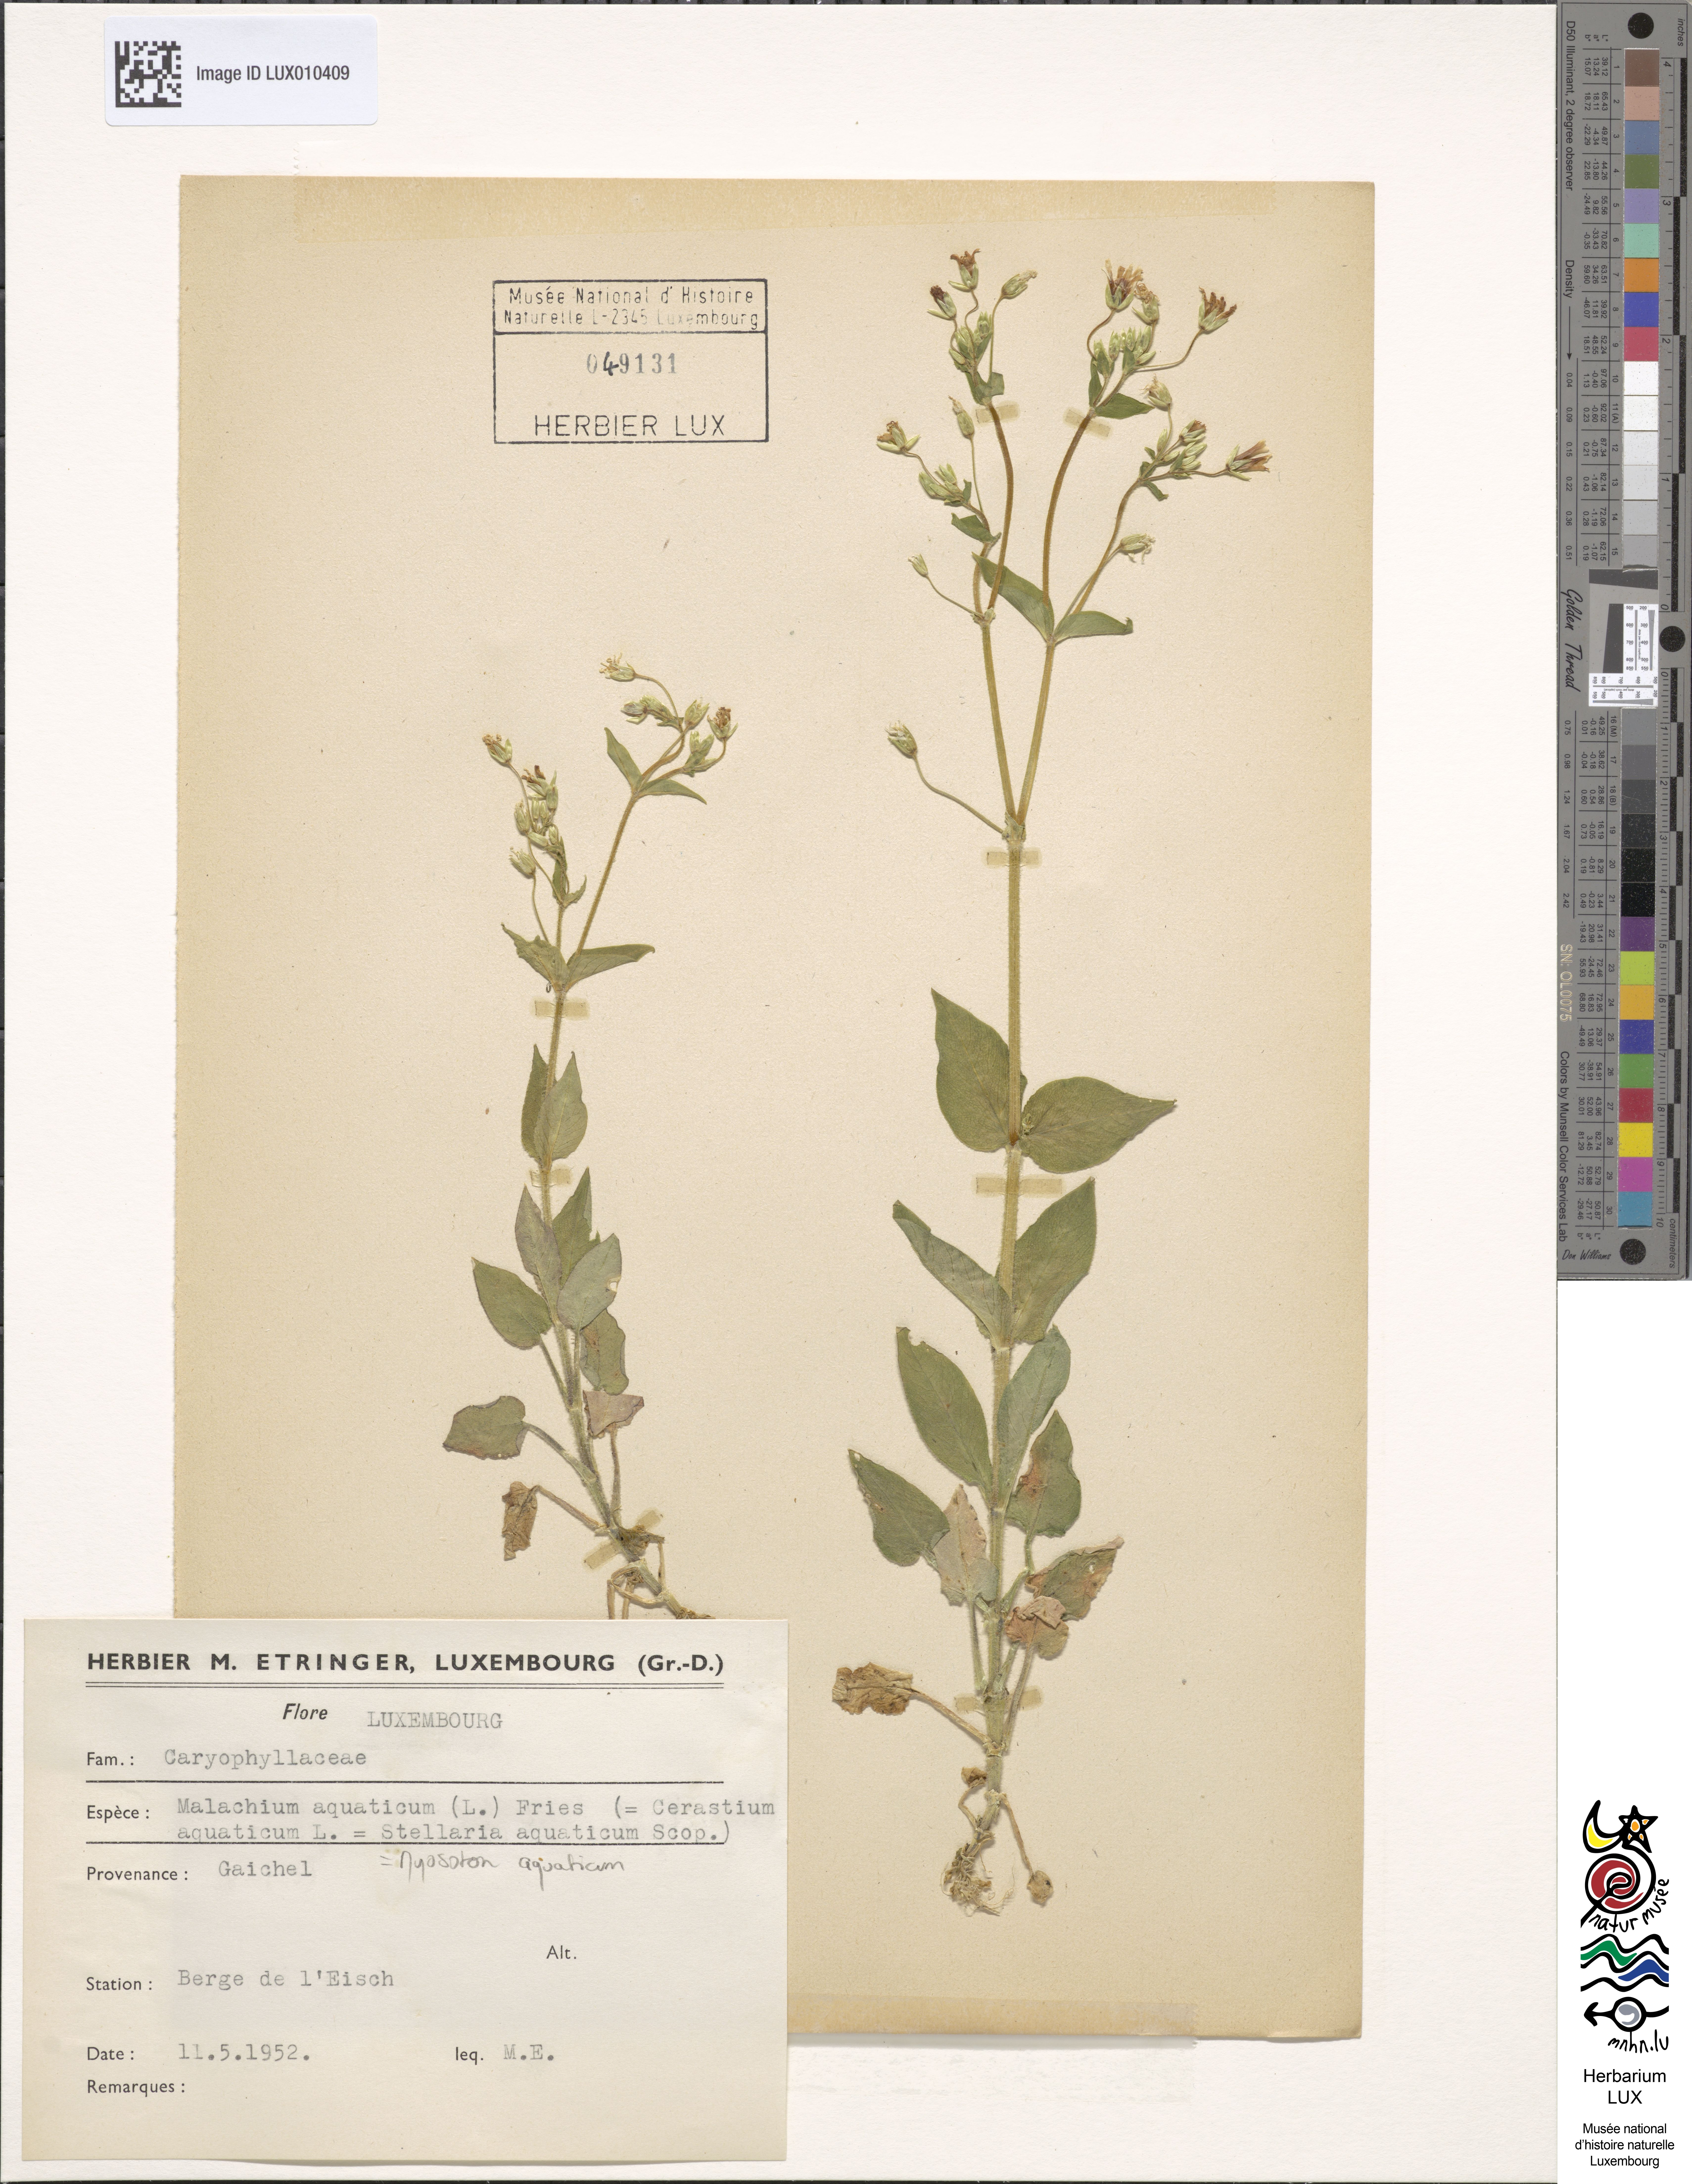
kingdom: Plantae
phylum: Tracheophyta
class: Magnoliopsida
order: Caryophyllales
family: Caryophyllaceae
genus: Stellaria
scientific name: Stellaria aquatica
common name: Water chickweed
